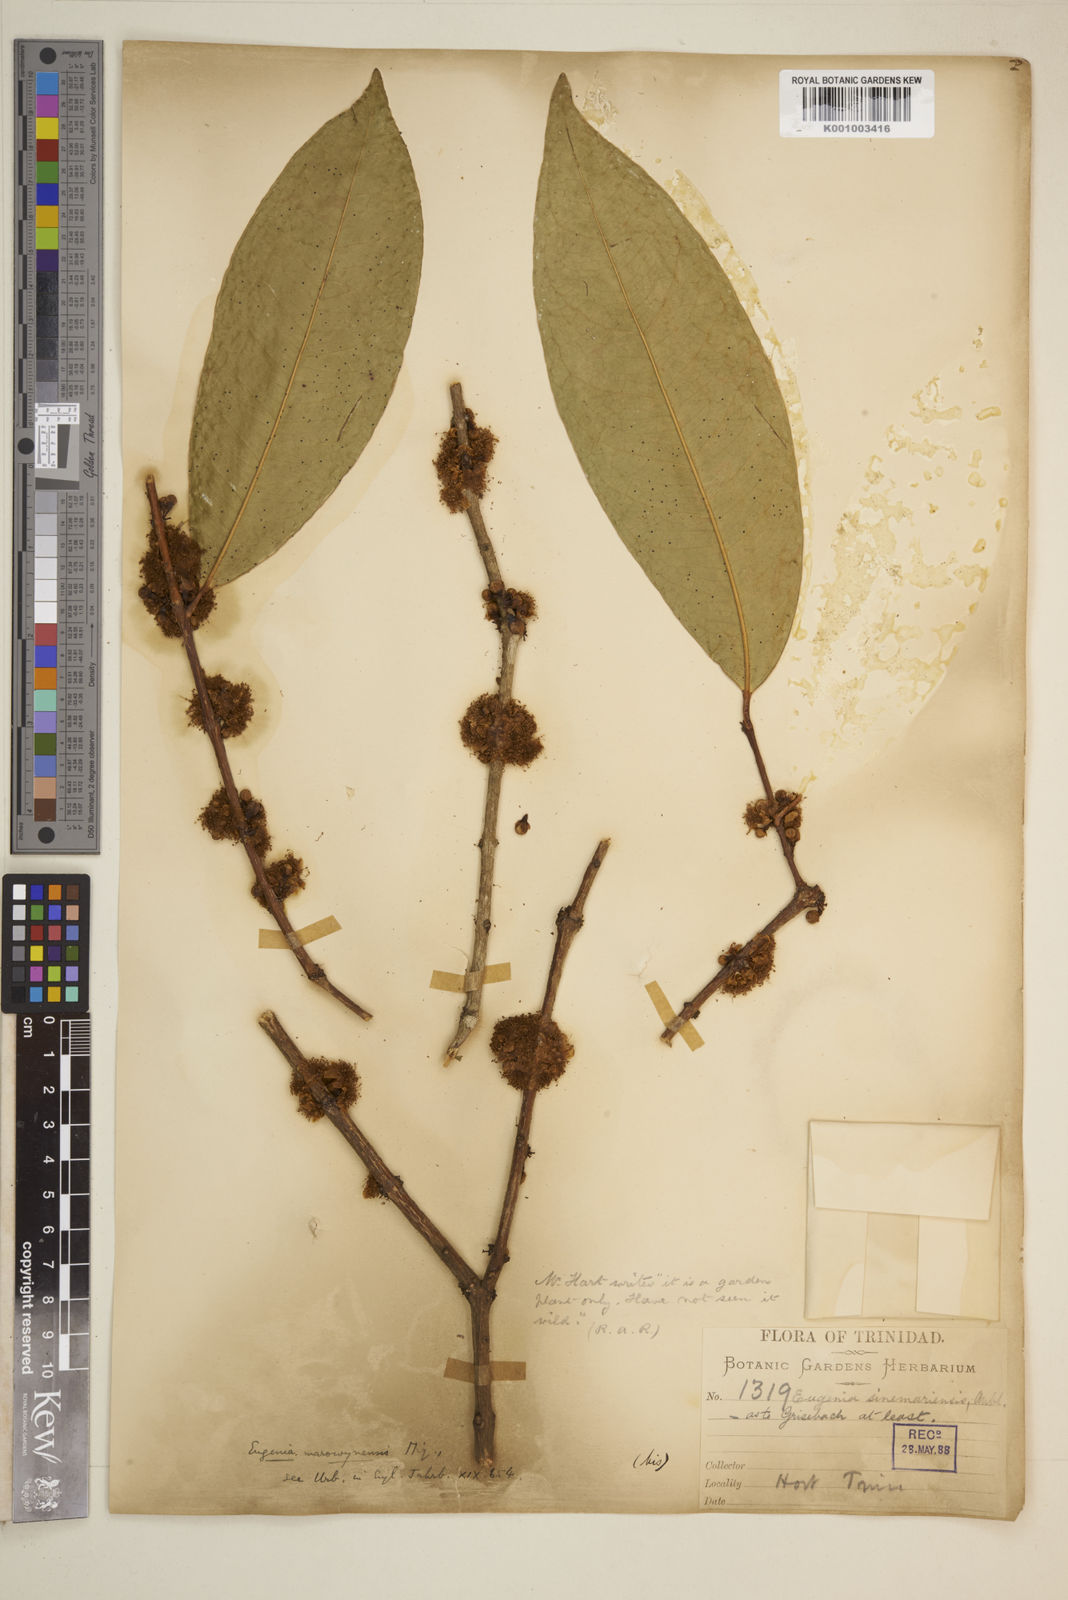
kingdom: Plantae
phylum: Tracheophyta
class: Magnoliopsida
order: Myrtales
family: Myrtaceae
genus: Eugenia
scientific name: Eugenia coffeifolia
